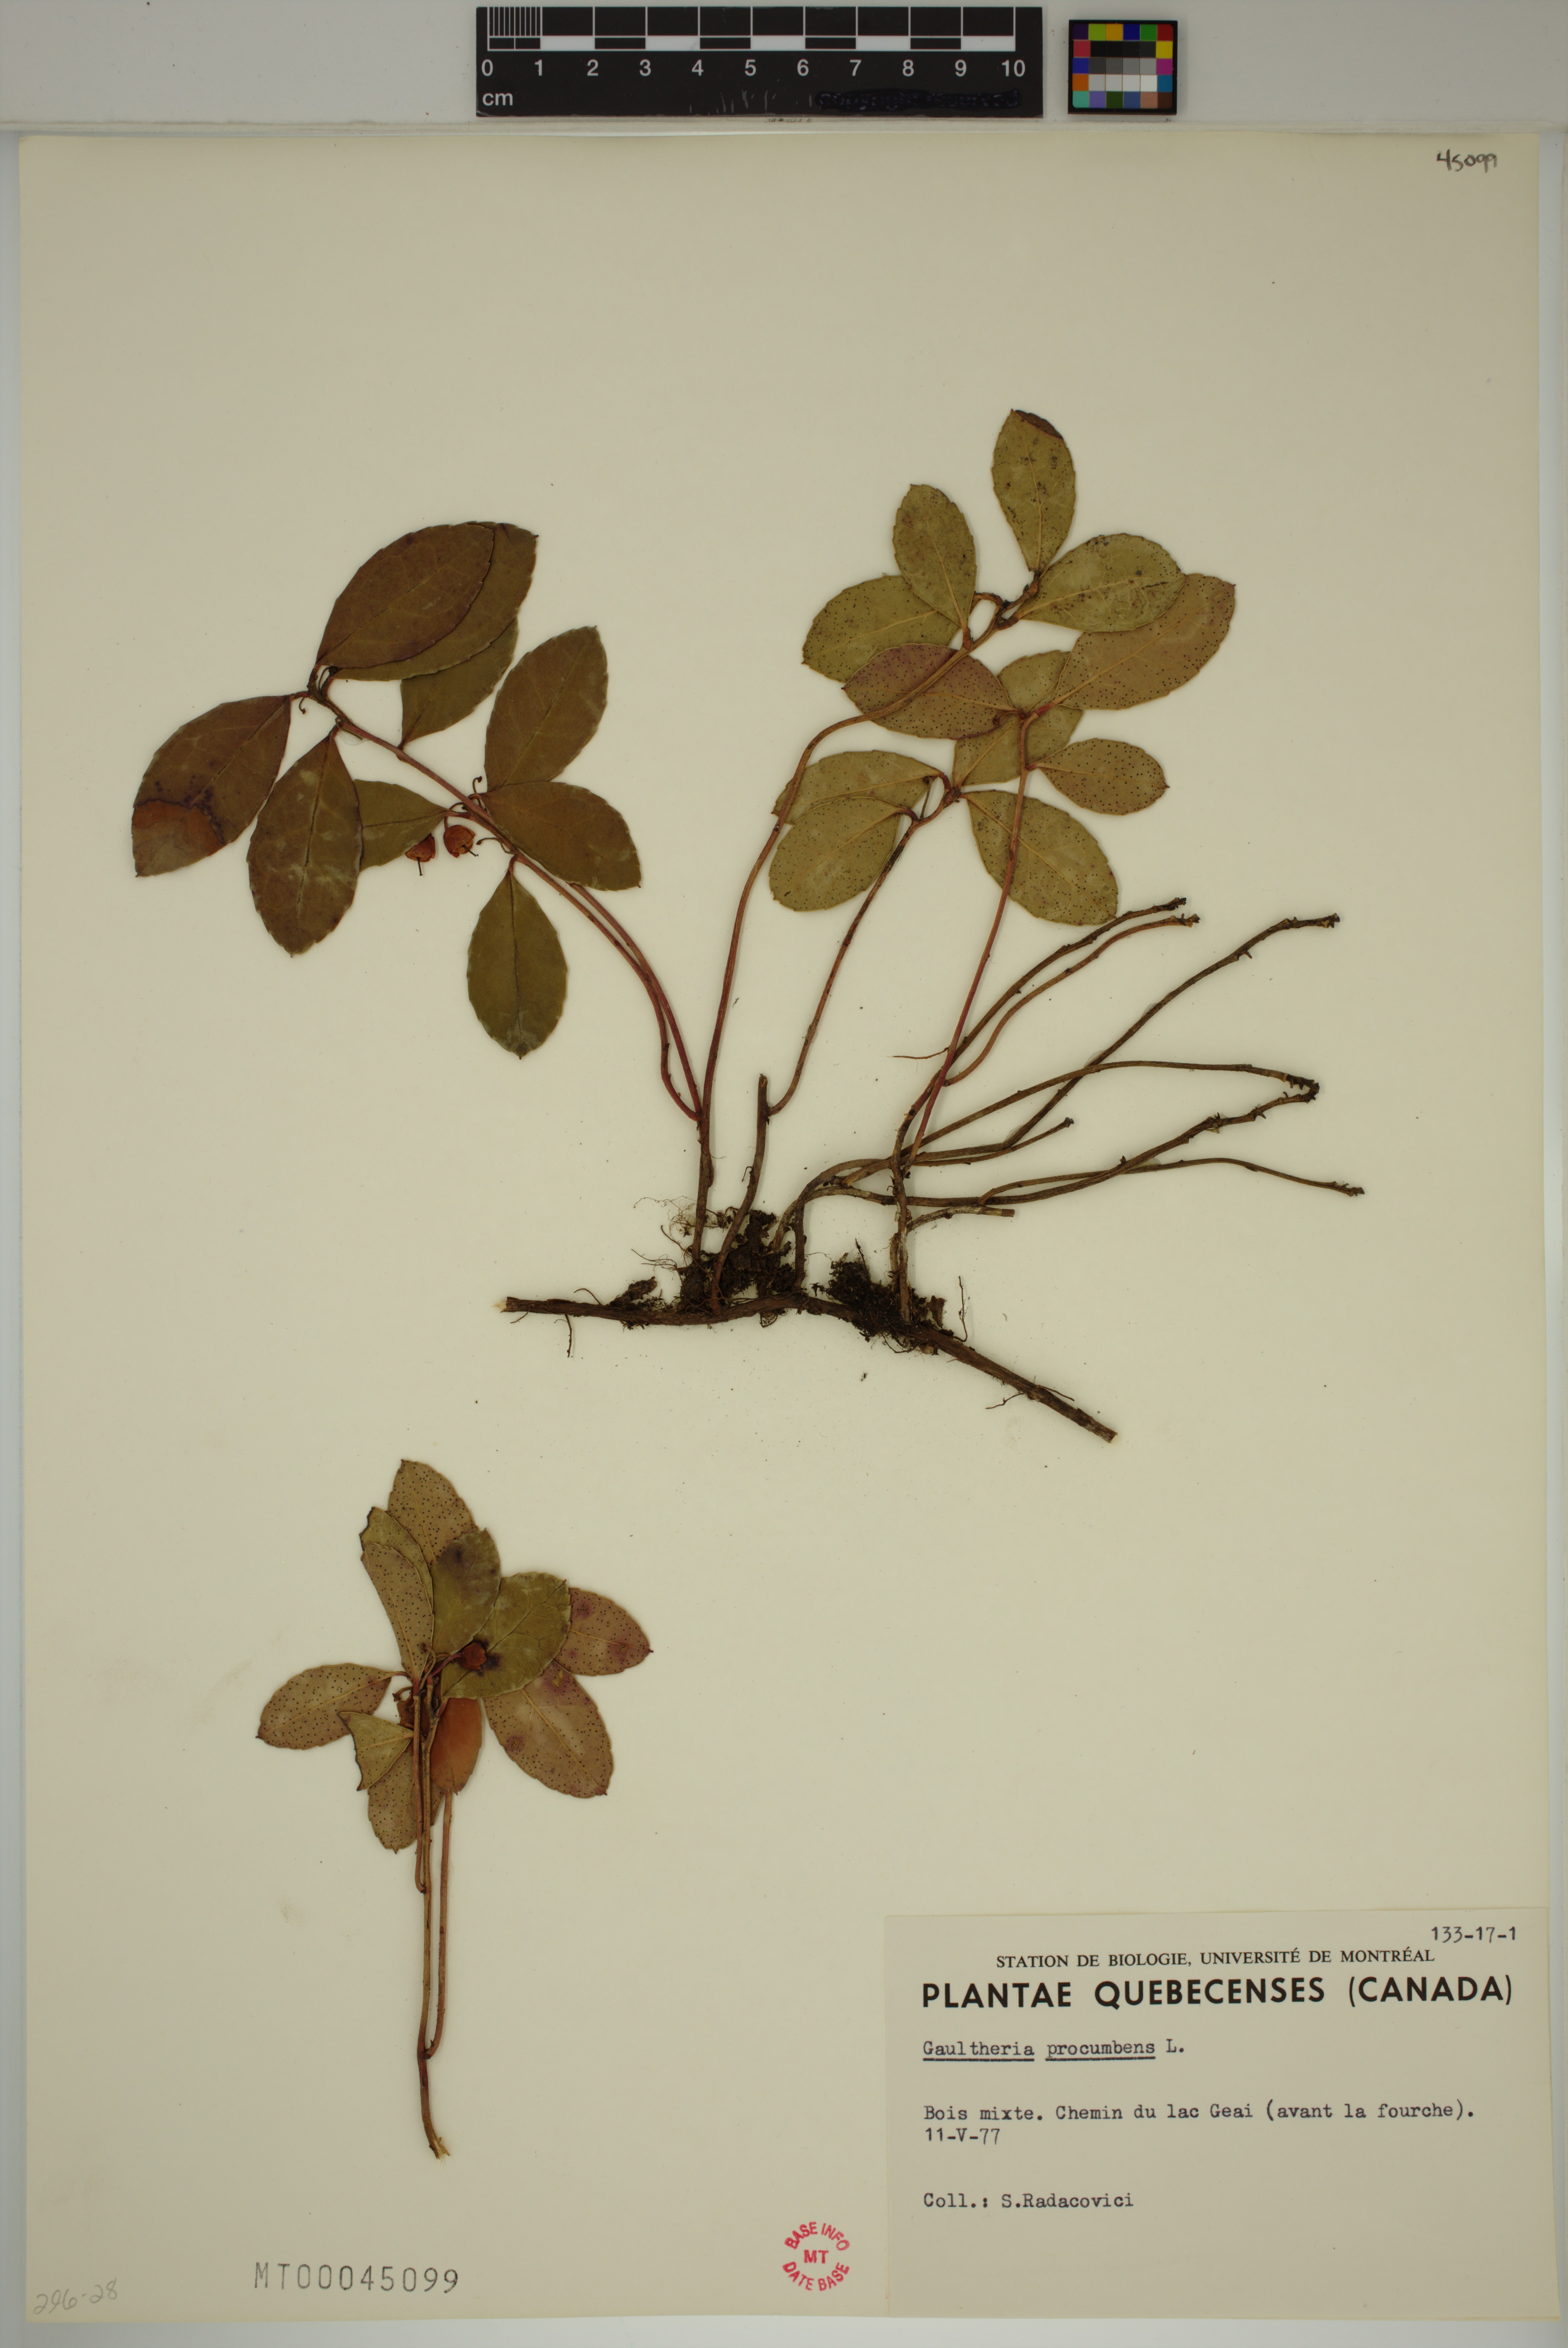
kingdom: Plantae
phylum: Tracheophyta
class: Magnoliopsida
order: Ericales
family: Ericaceae
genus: Gaultheria
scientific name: Gaultheria procumbens
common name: Checkerberry
